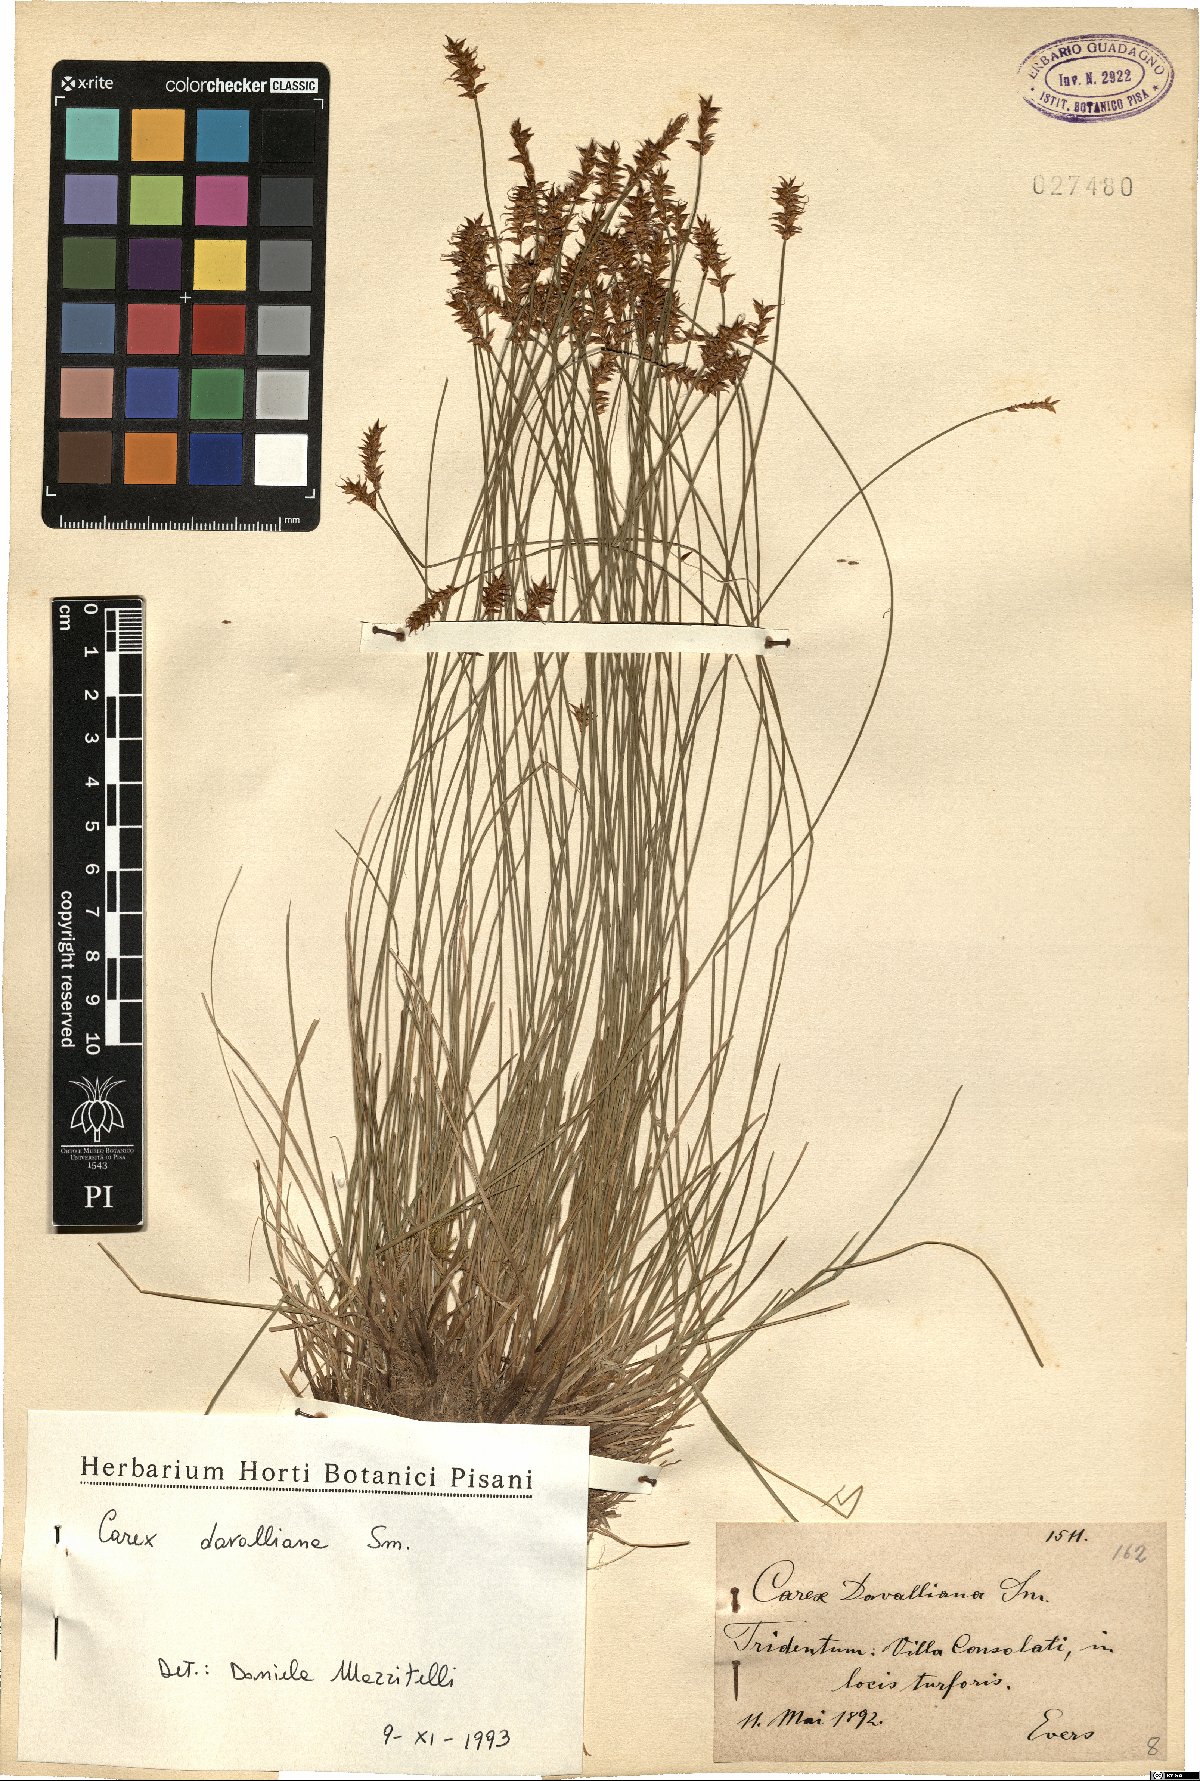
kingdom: Plantae
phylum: Tracheophyta
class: Liliopsida
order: Poales
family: Cyperaceae
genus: Carex
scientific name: Carex davalliana
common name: Davall's sedge
